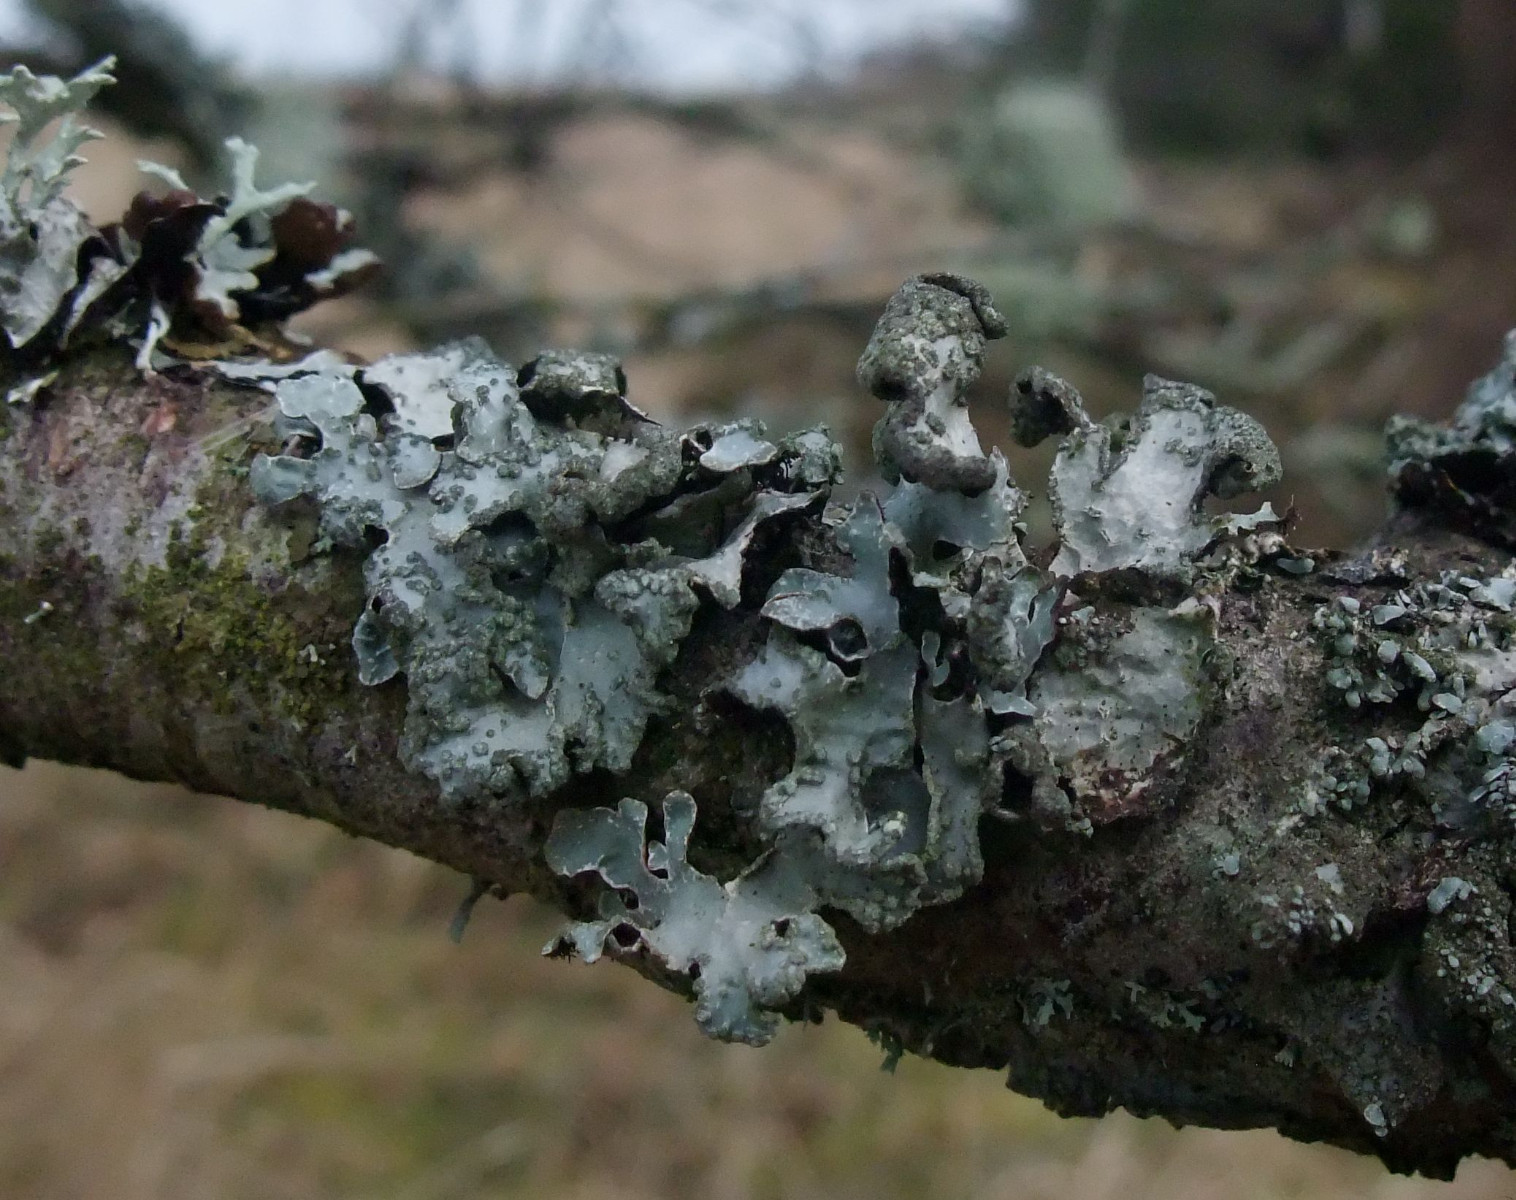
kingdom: Fungi
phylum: Ascomycota
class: Lecanoromycetes
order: Lecanorales
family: Parmeliaceae
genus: Parmelia
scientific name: Parmelia sulcata
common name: rynket skållav
